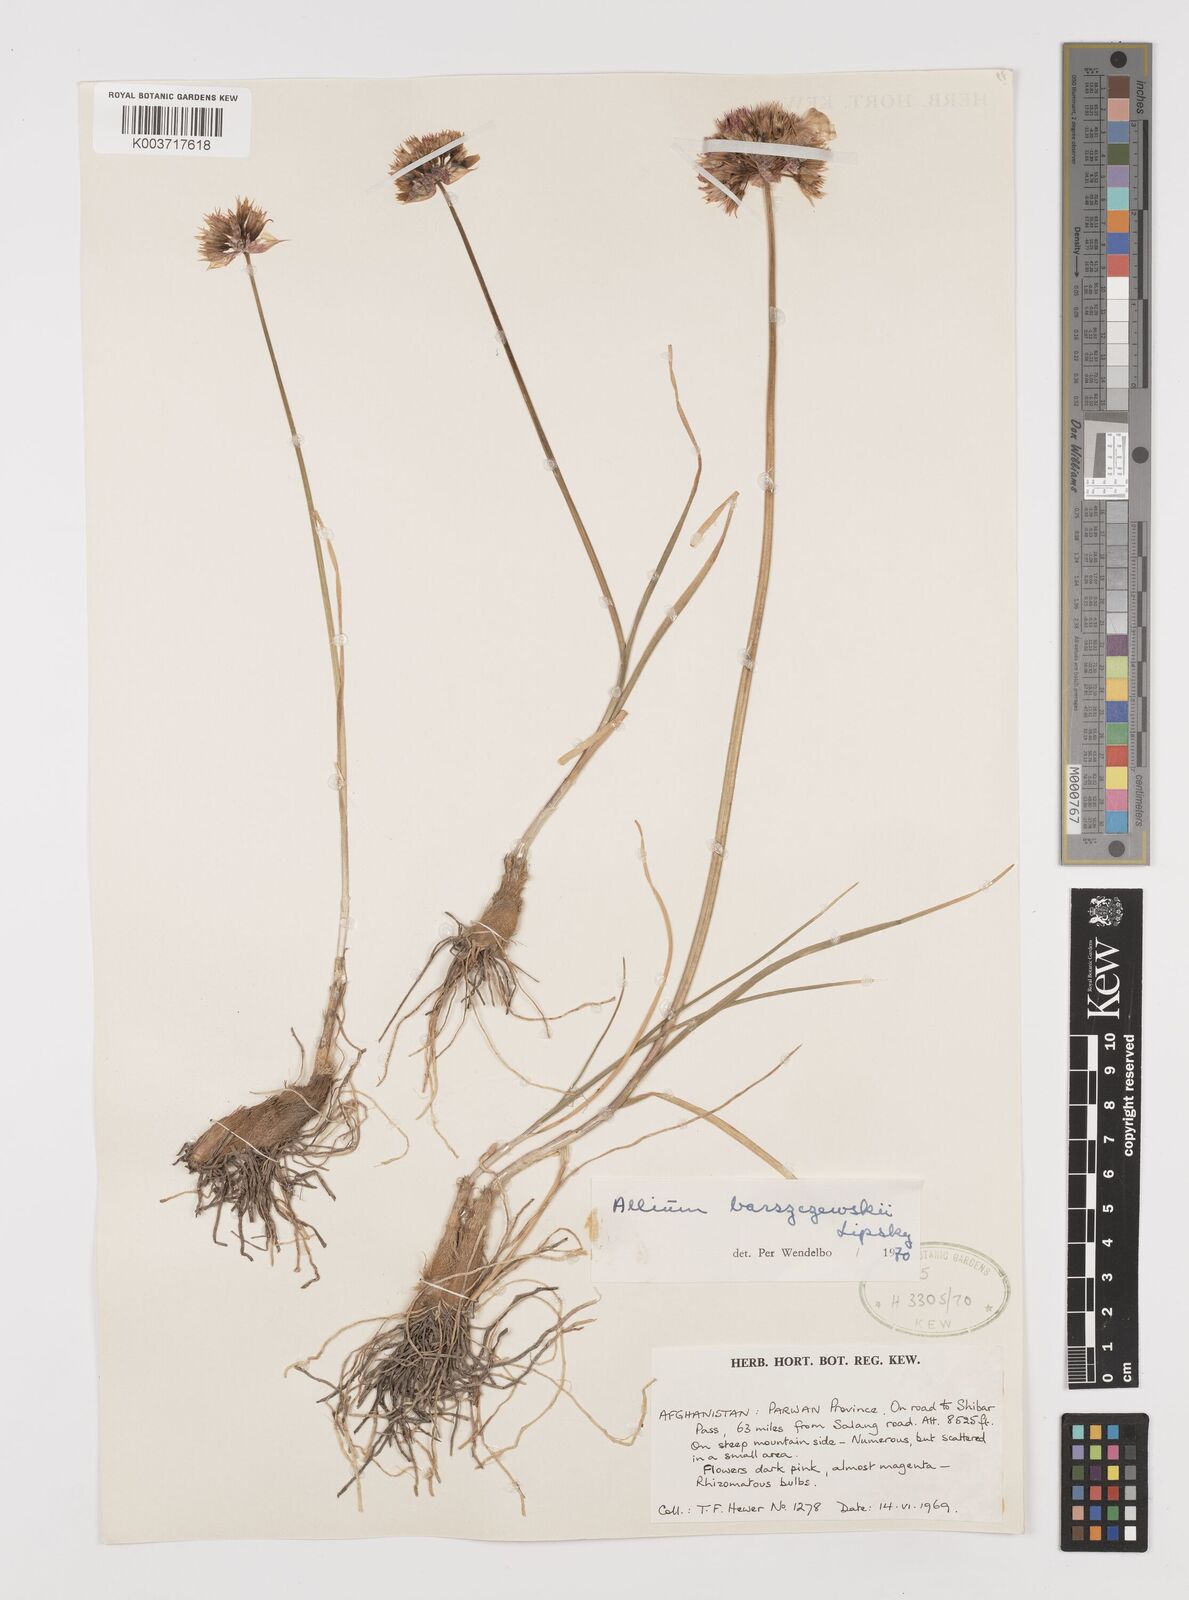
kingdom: Plantae
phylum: Tracheophyta
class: Liliopsida
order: Asparagales
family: Amaryllidaceae
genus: Allium
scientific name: Allium barsczewskii
